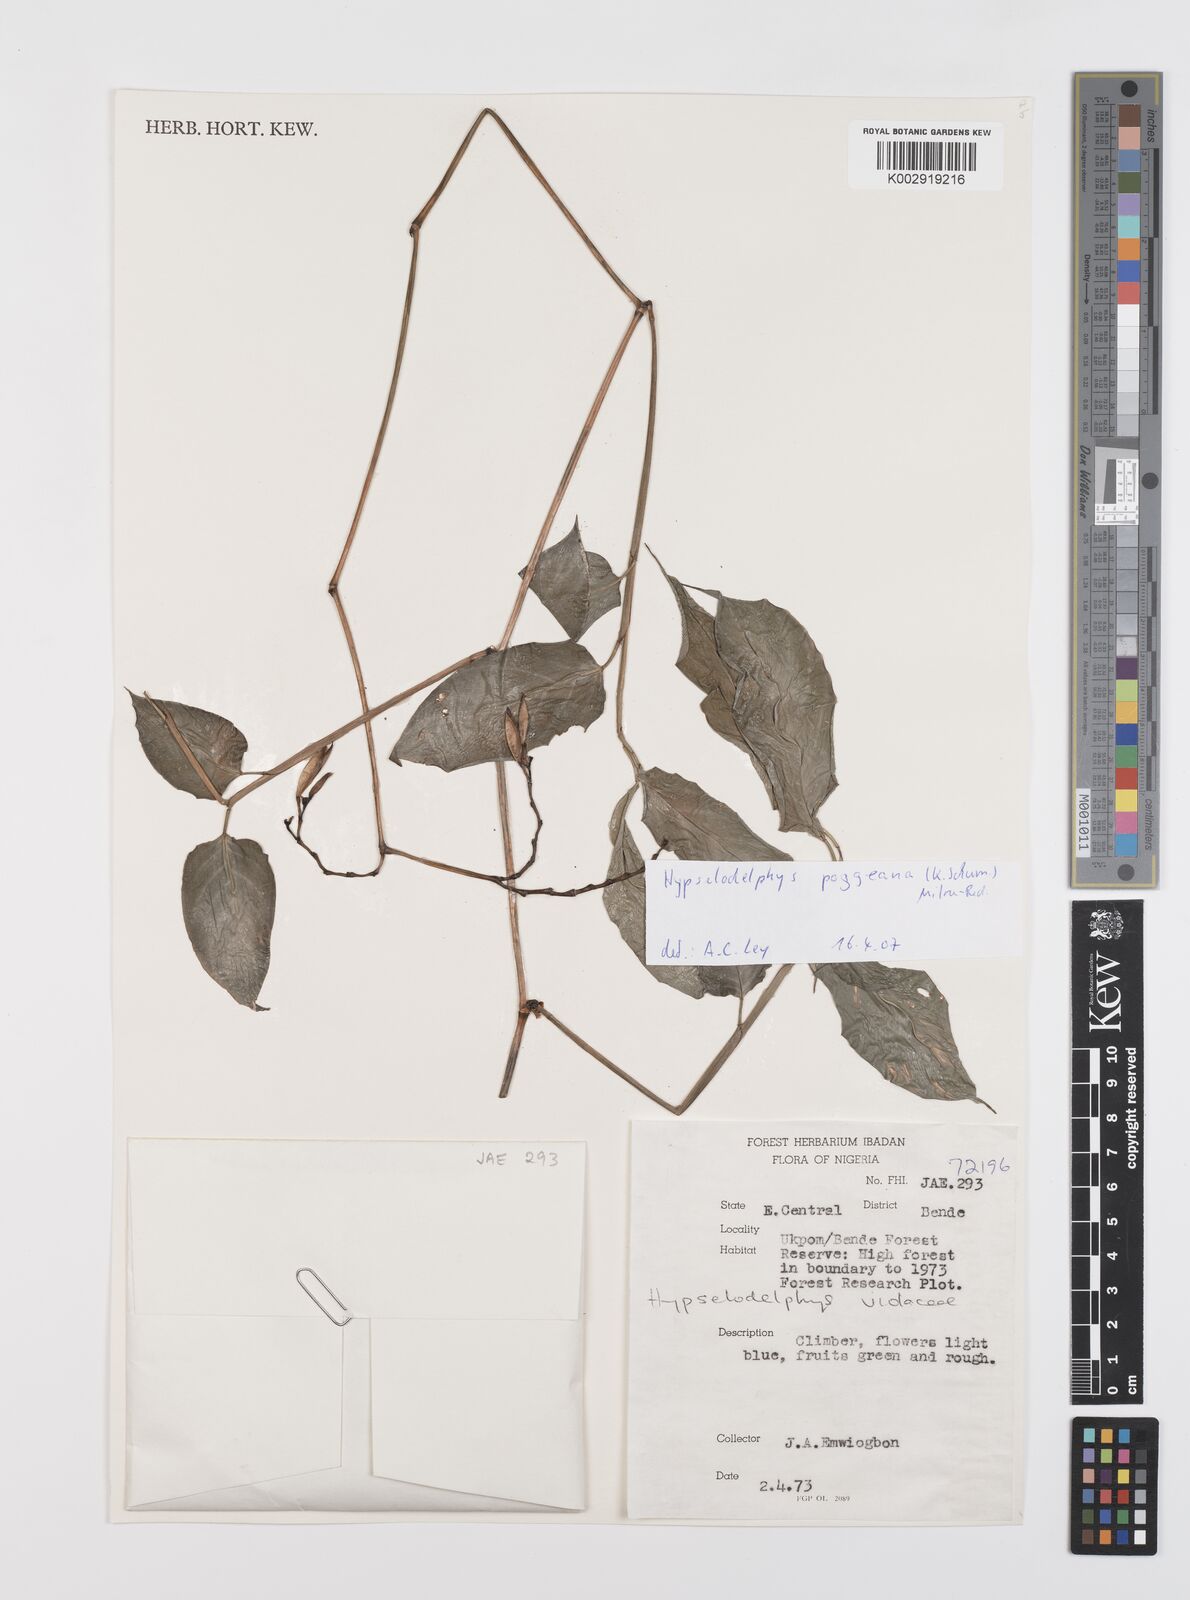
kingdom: Plantae
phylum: Tracheophyta
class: Liliopsida
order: Zingiberales
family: Marantaceae
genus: Hypselodelphys
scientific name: Hypselodelphys poggeana
